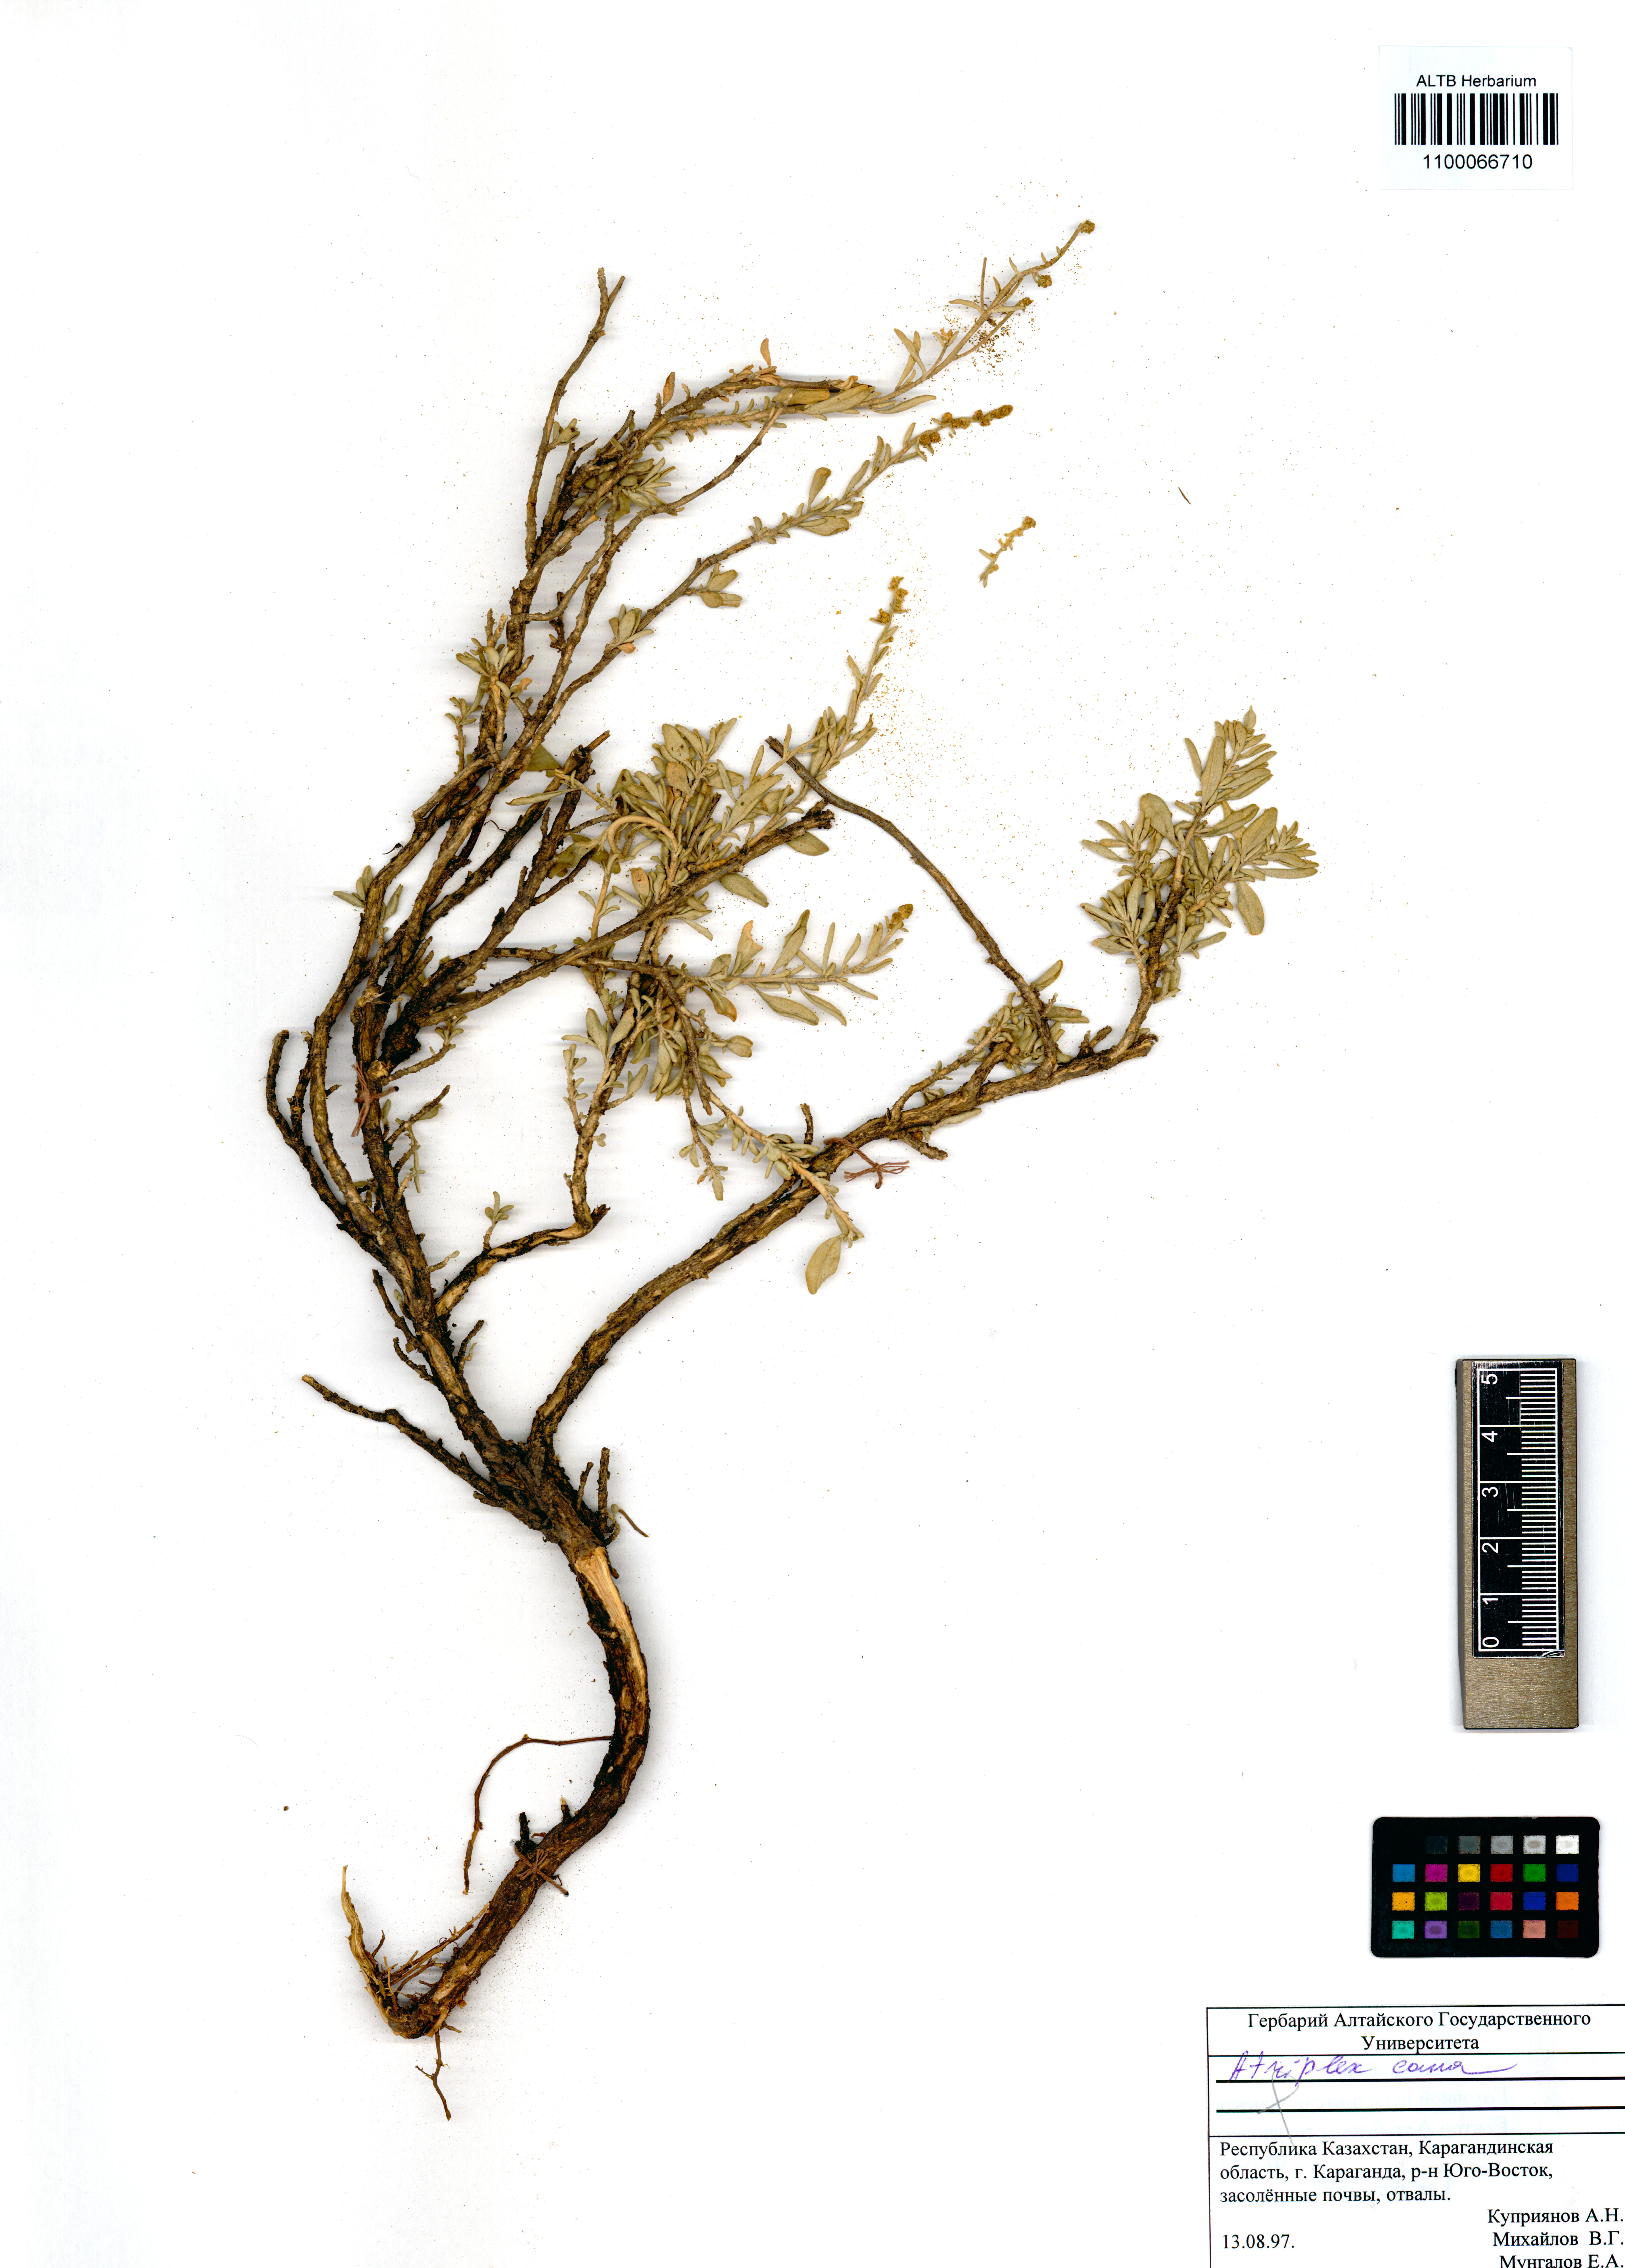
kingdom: Plantae
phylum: Tracheophyta
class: Magnoliopsida
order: Caryophyllales
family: Amaranthaceae
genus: Atriplex
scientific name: Atriplex cana
